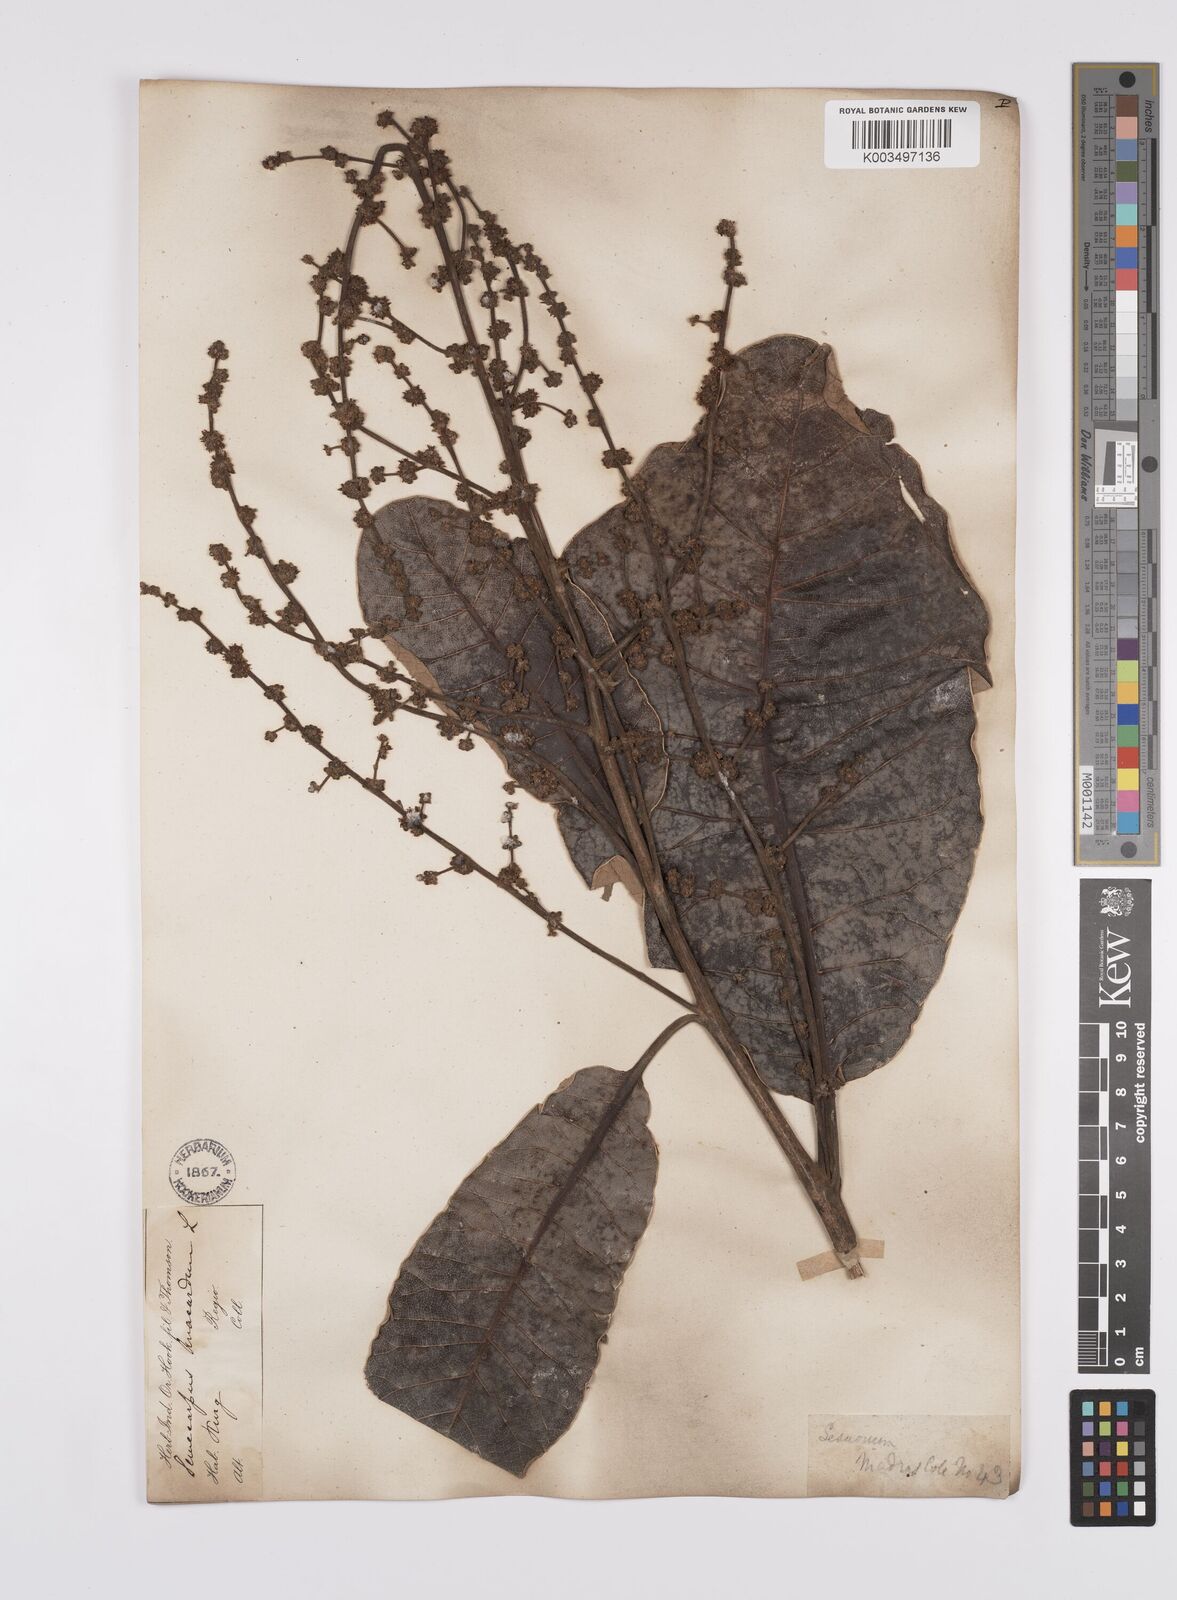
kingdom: Plantae
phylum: Tracheophyta
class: Magnoliopsida
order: Sapindales
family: Anacardiaceae
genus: Semecarpus
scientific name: Semecarpus anacardium
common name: Marking nut-tree
